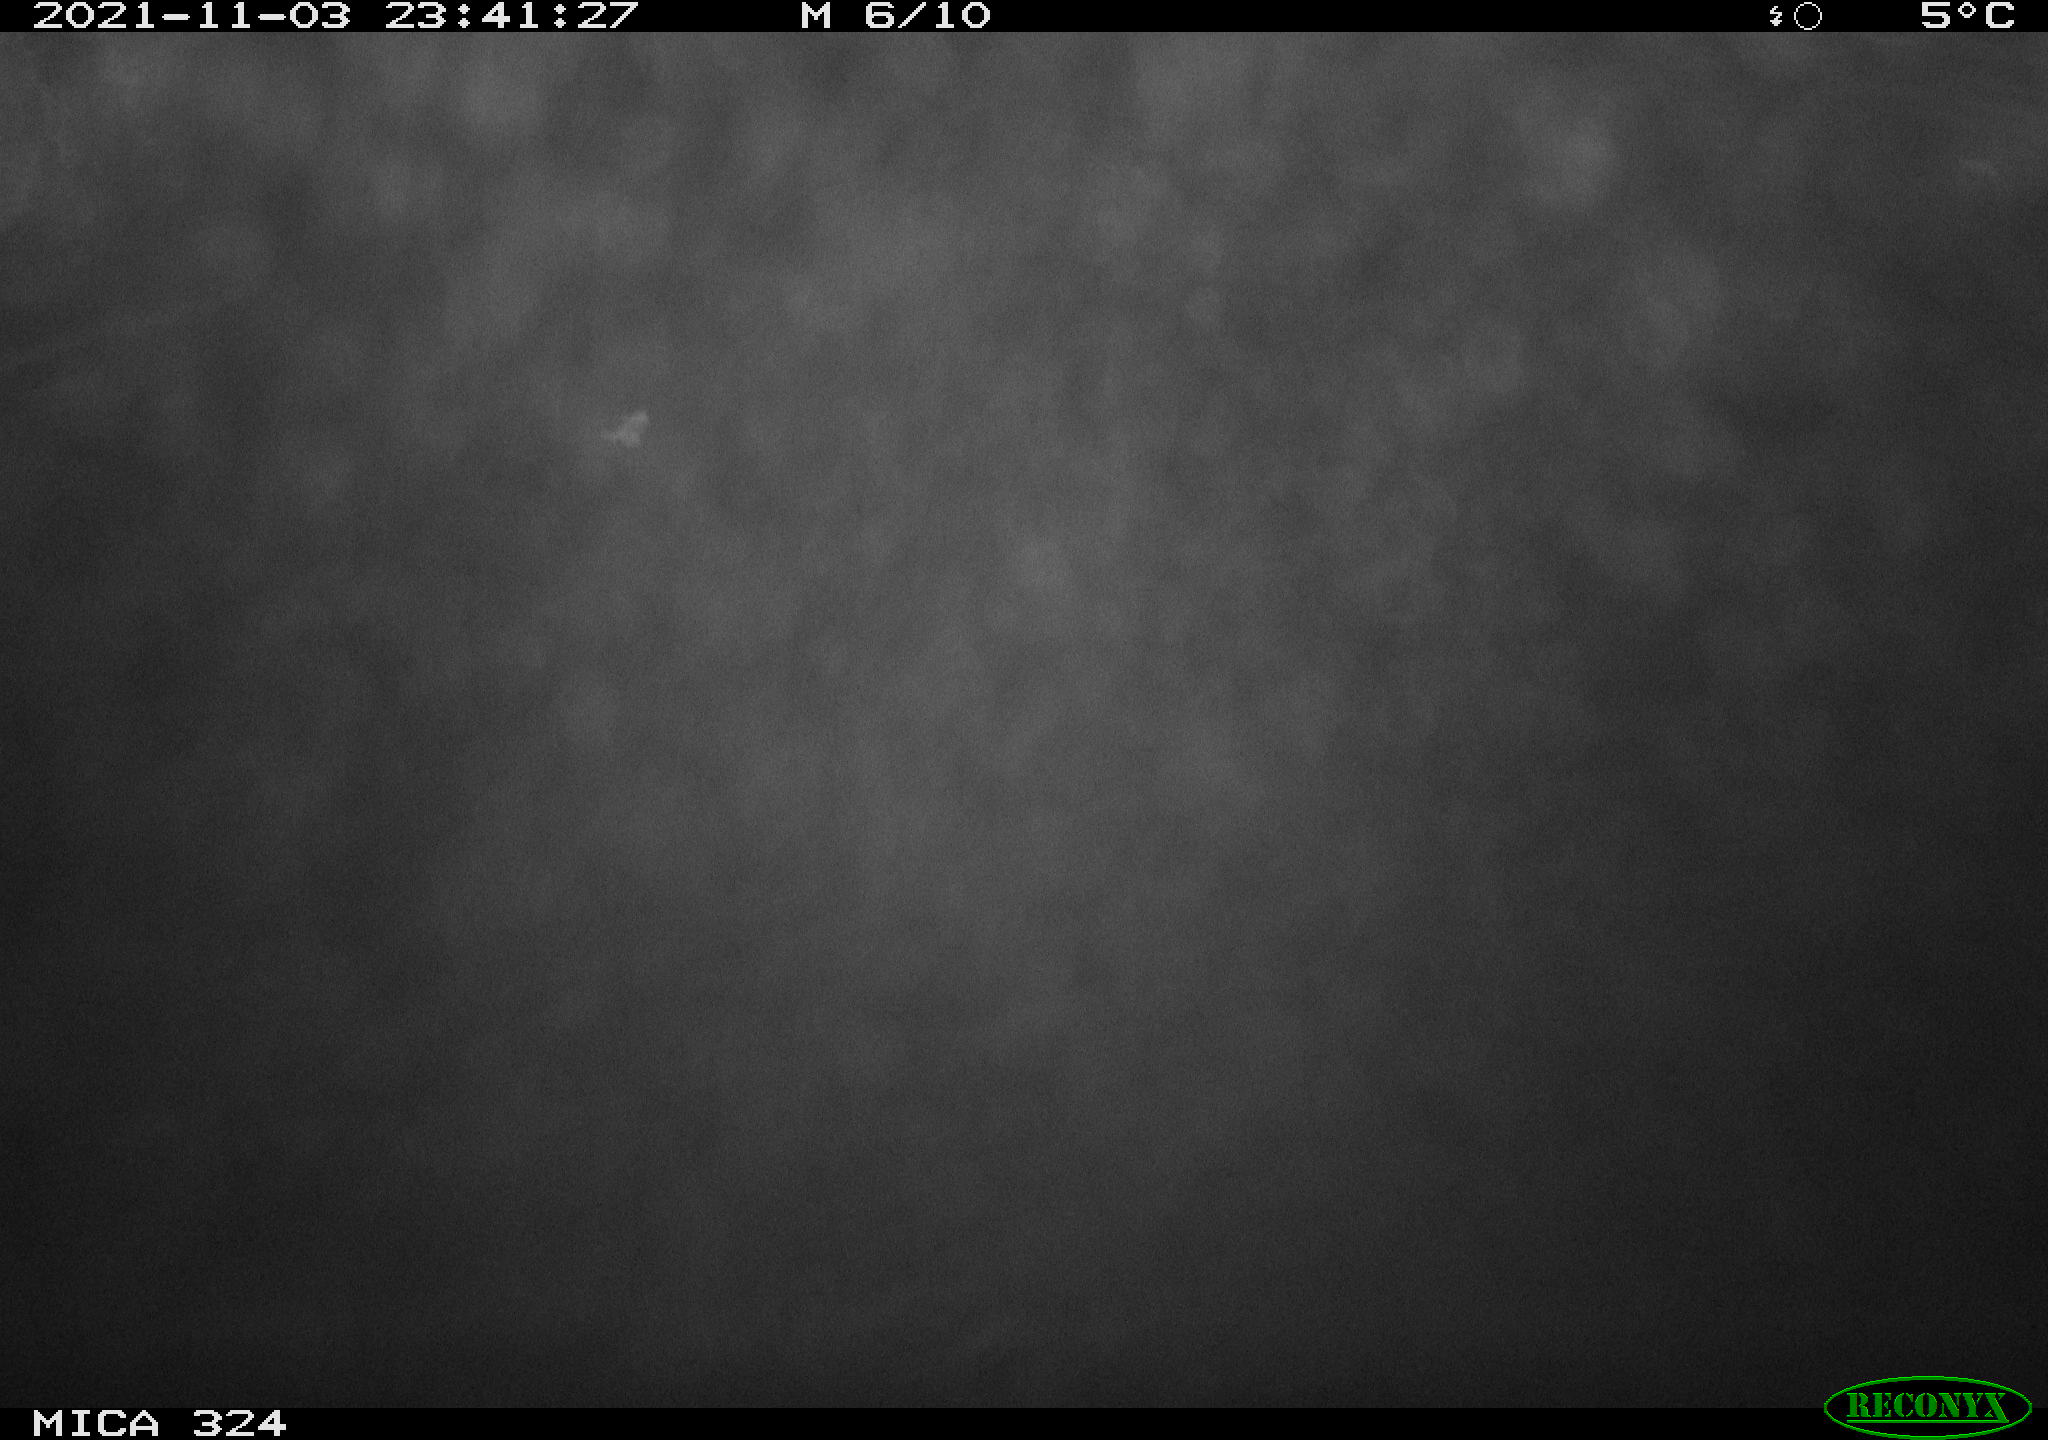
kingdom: Animalia
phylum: Chordata
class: Mammalia
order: Rodentia
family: Cricetidae
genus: Ondatra
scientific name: Ondatra zibethicus
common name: Muskrat
